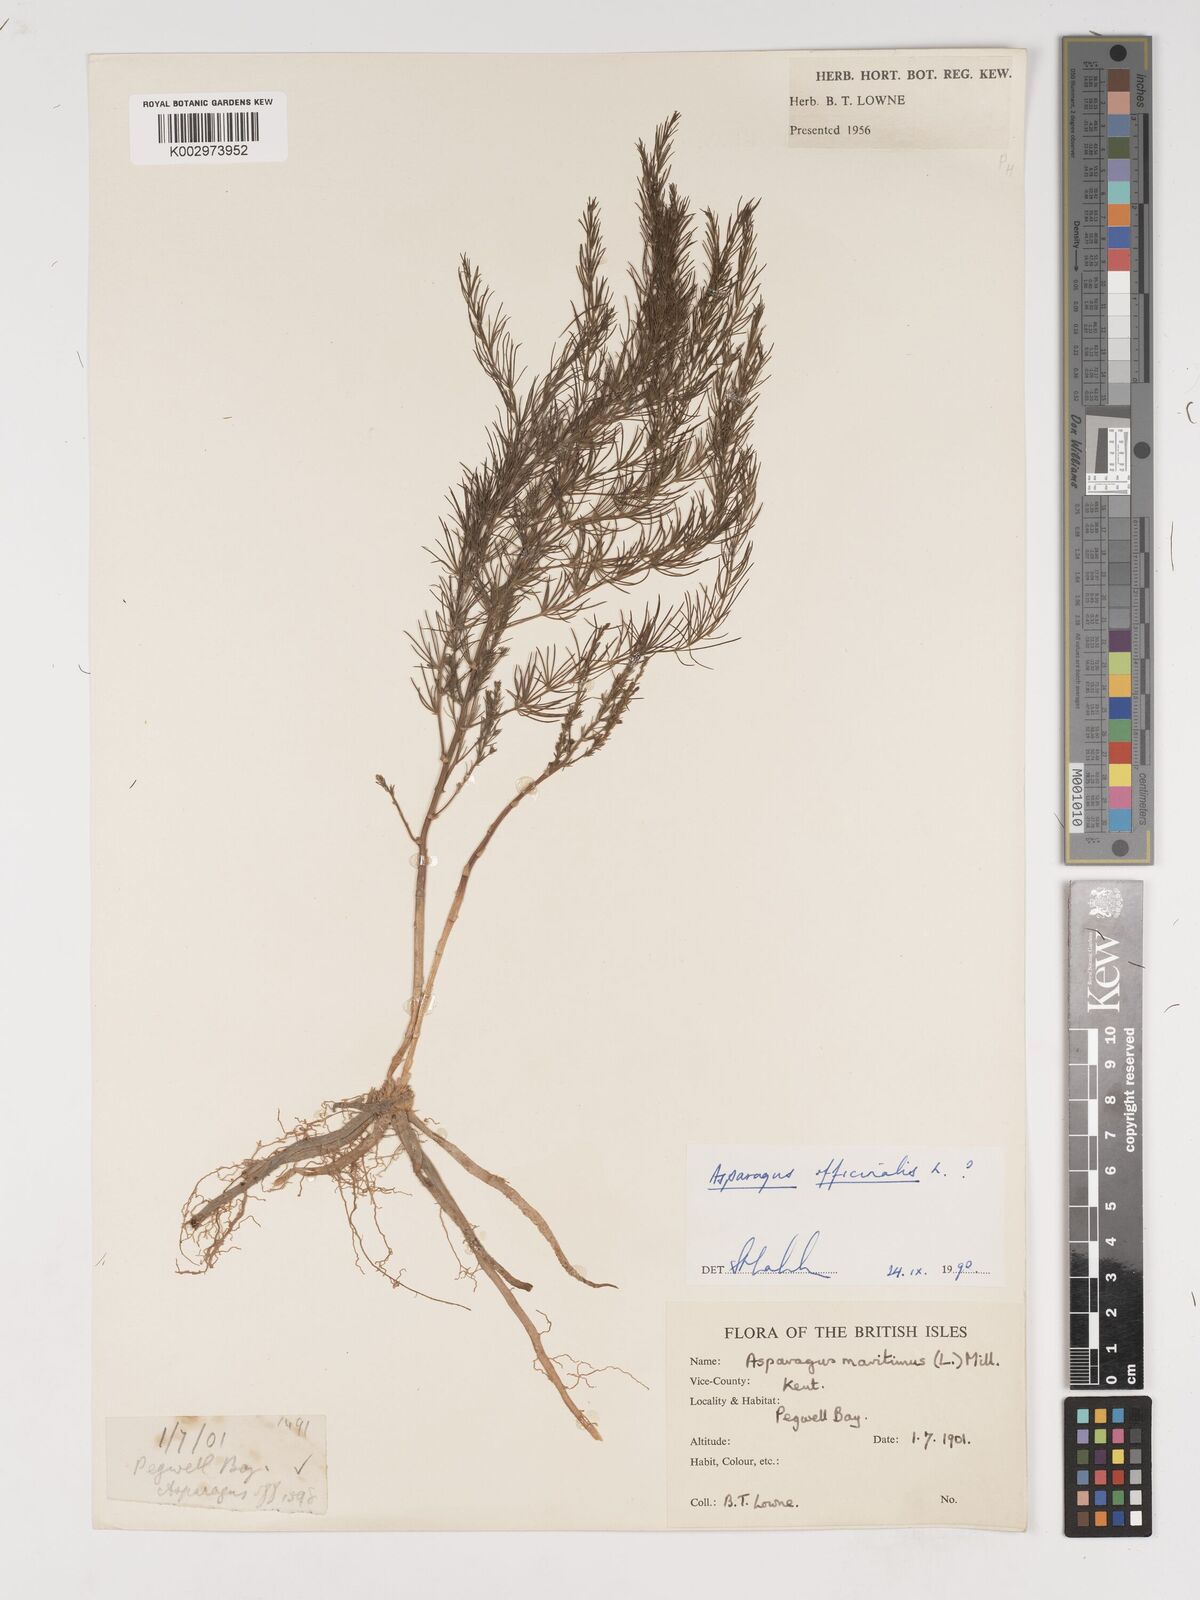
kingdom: Plantae
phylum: Tracheophyta
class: Liliopsida
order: Asparagales
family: Asparagaceae
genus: Asparagus
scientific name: Asparagus officinalis
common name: Garden asparagus
